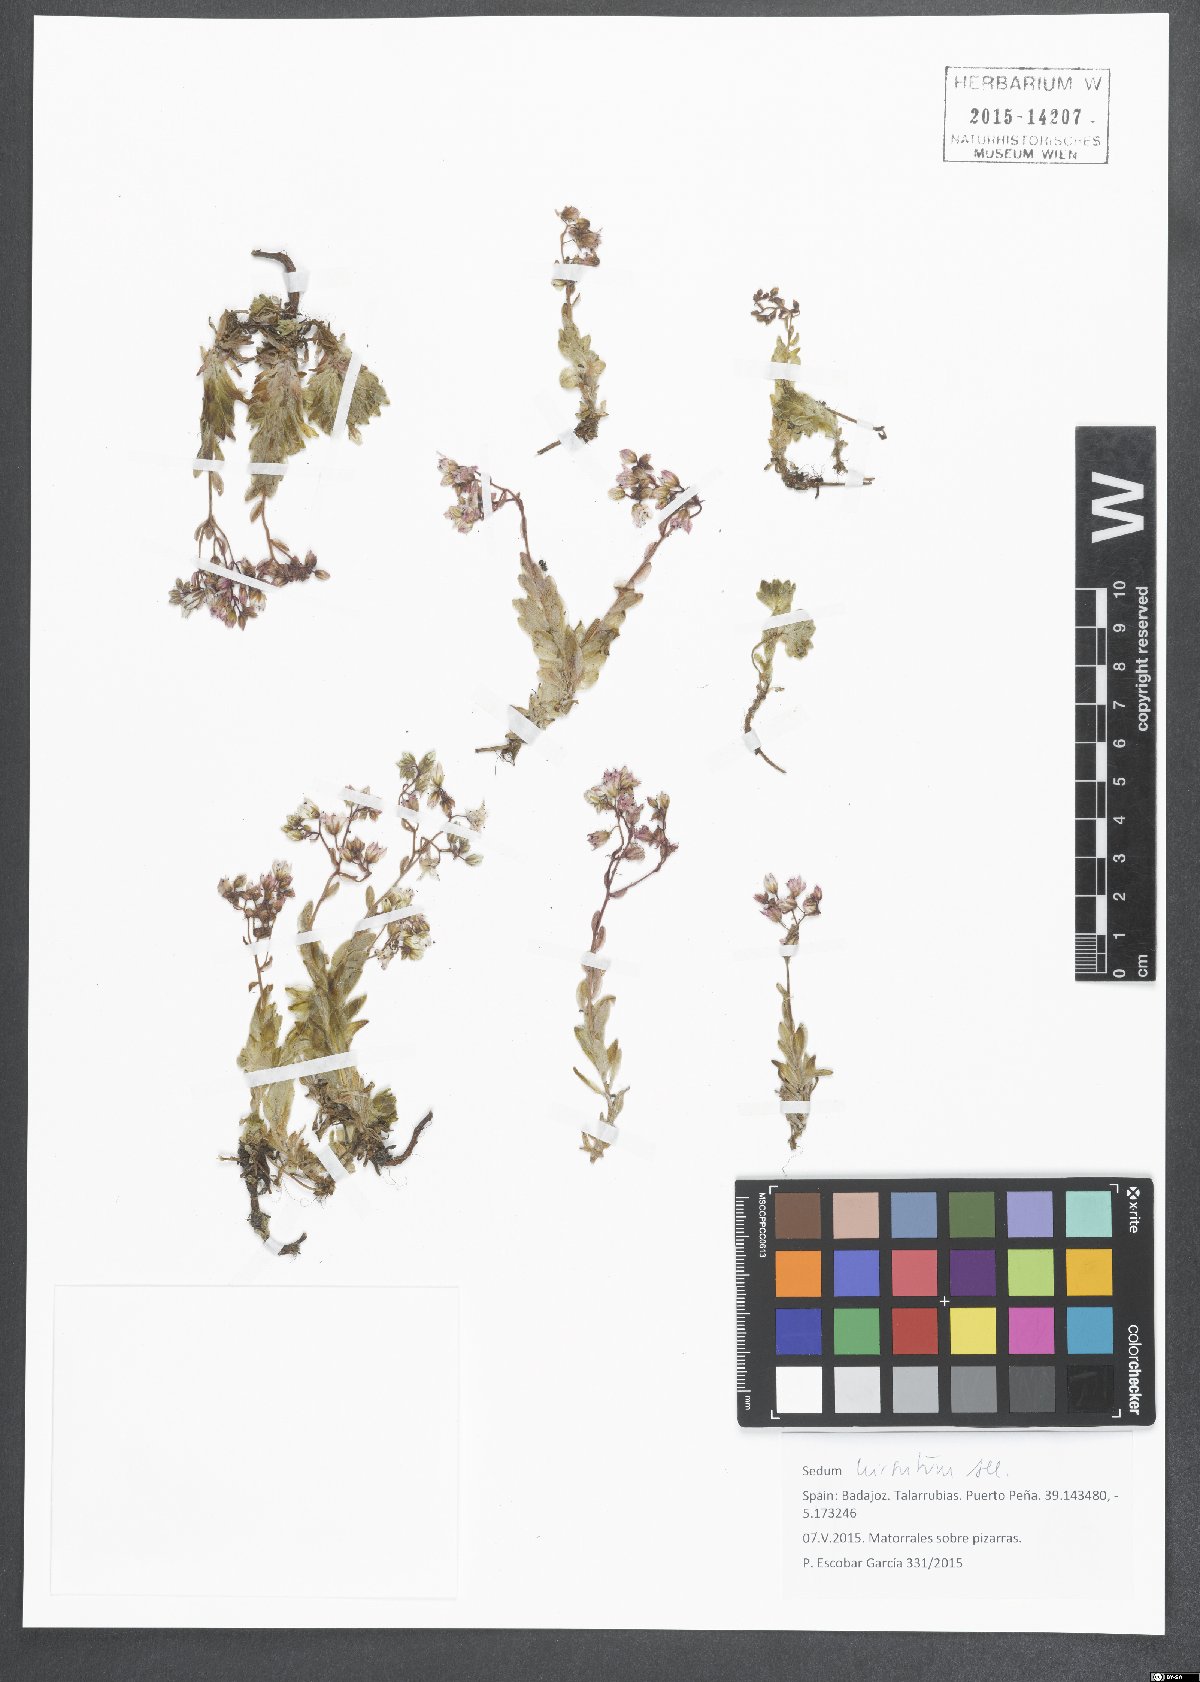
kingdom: Plantae
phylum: Tracheophyta
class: Magnoliopsida
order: Saxifragales
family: Crassulaceae
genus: Sedum
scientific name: Sedum hirsutum
